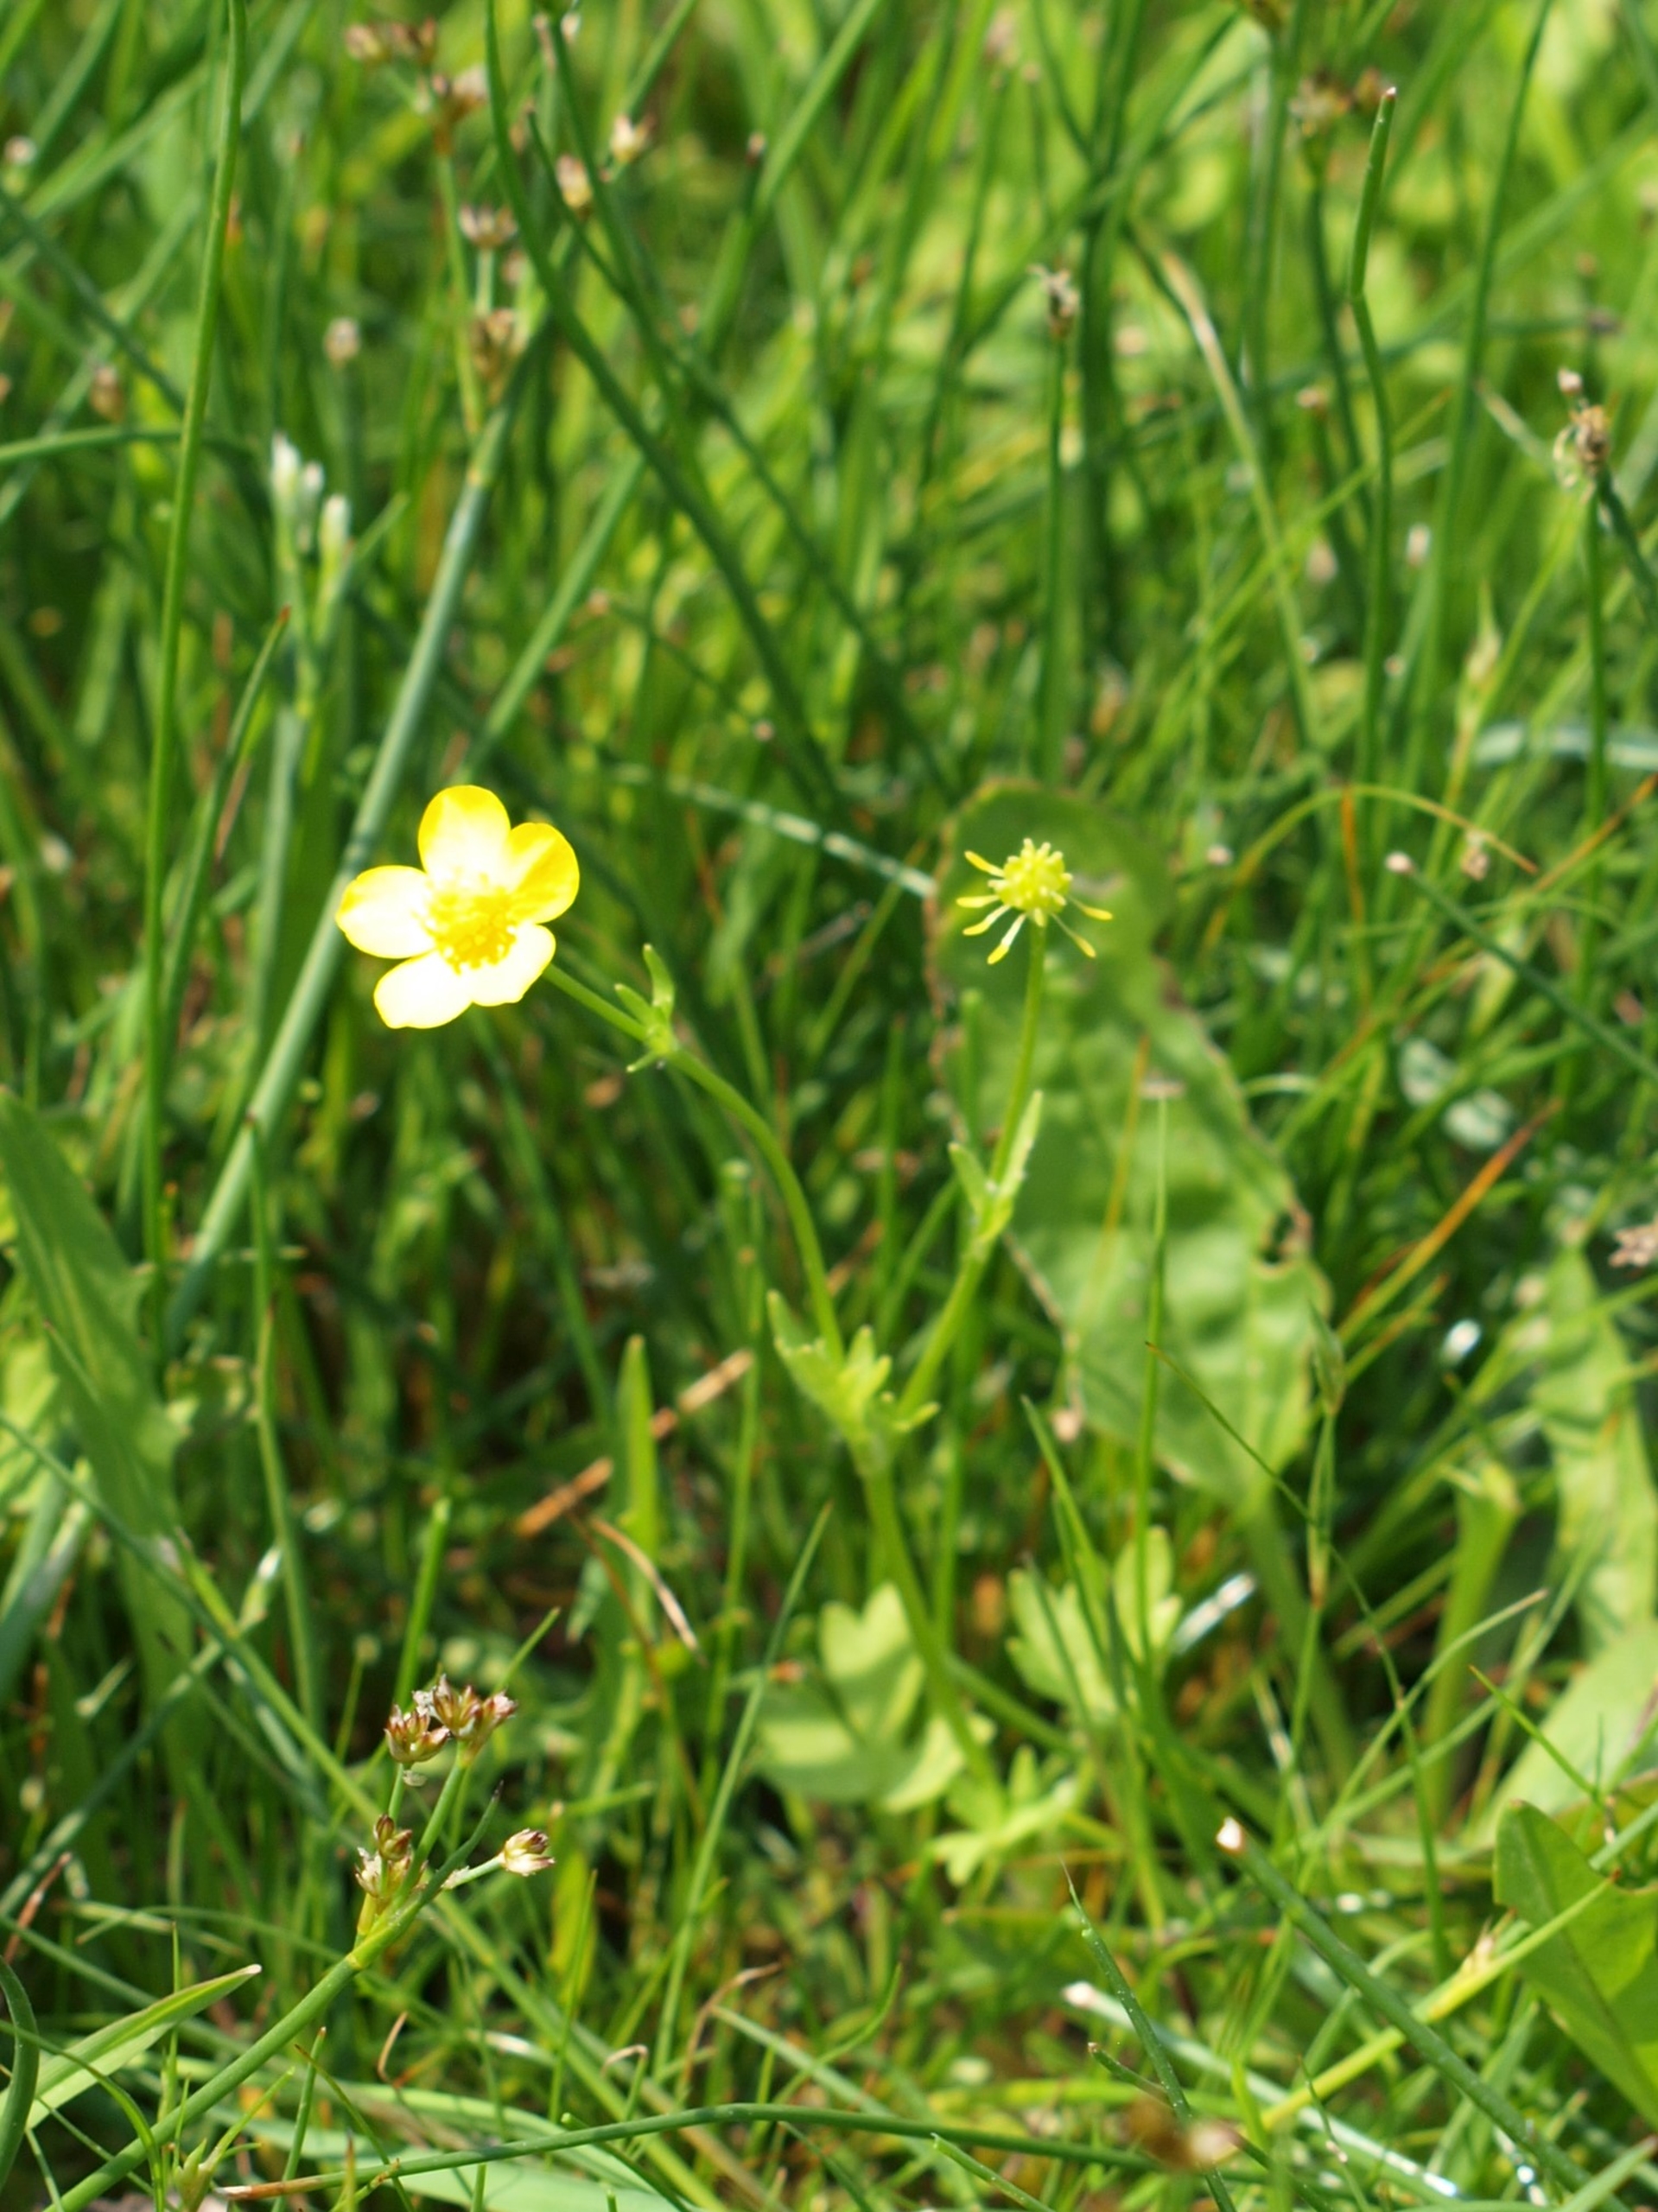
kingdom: Plantae
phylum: Tracheophyta
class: Magnoliopsida
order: Ranunculales
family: Ranunculaceae
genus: Ranunculus
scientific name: Ranunculus sardous
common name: Stivhåret ranunkel
